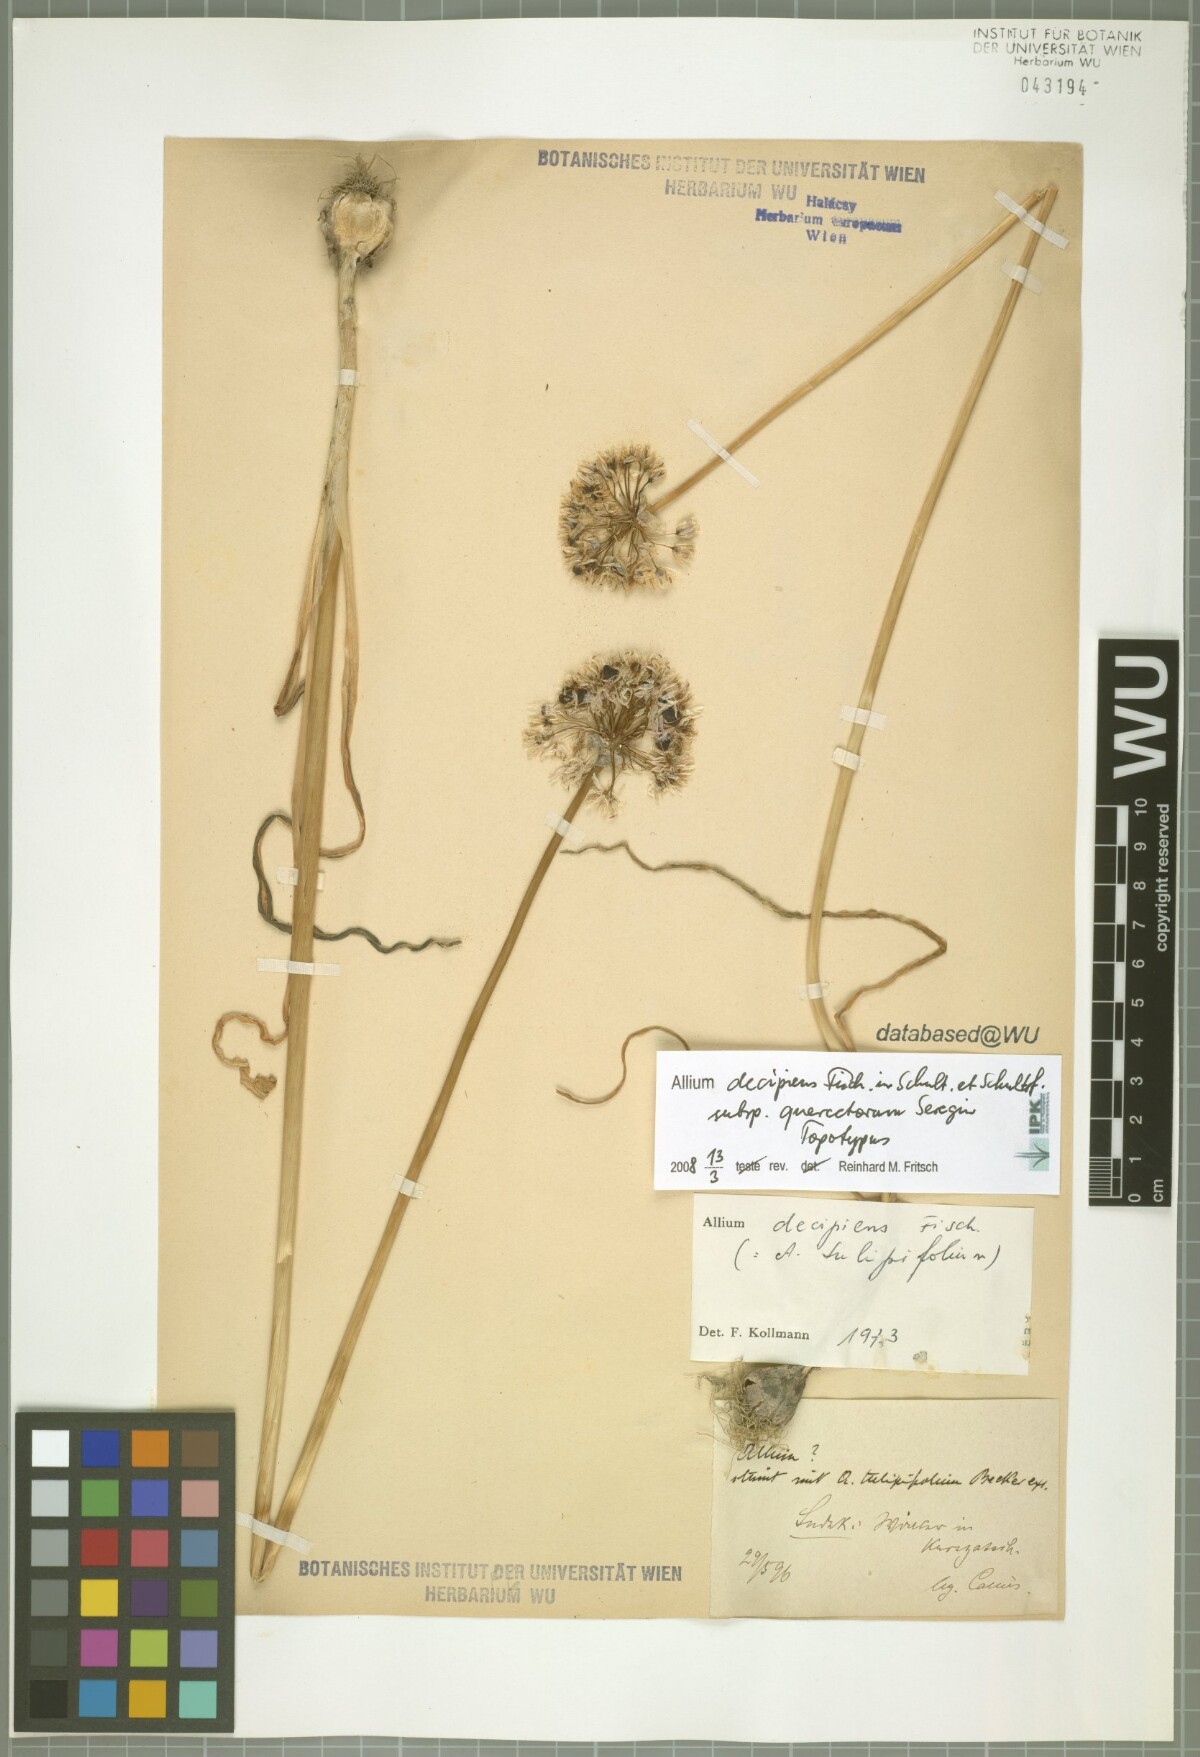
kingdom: Plantae
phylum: Tracheophyta
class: Liliopsida
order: Asparagales
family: Amaryllidaceae
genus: Allium
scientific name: Allium quercetorum
